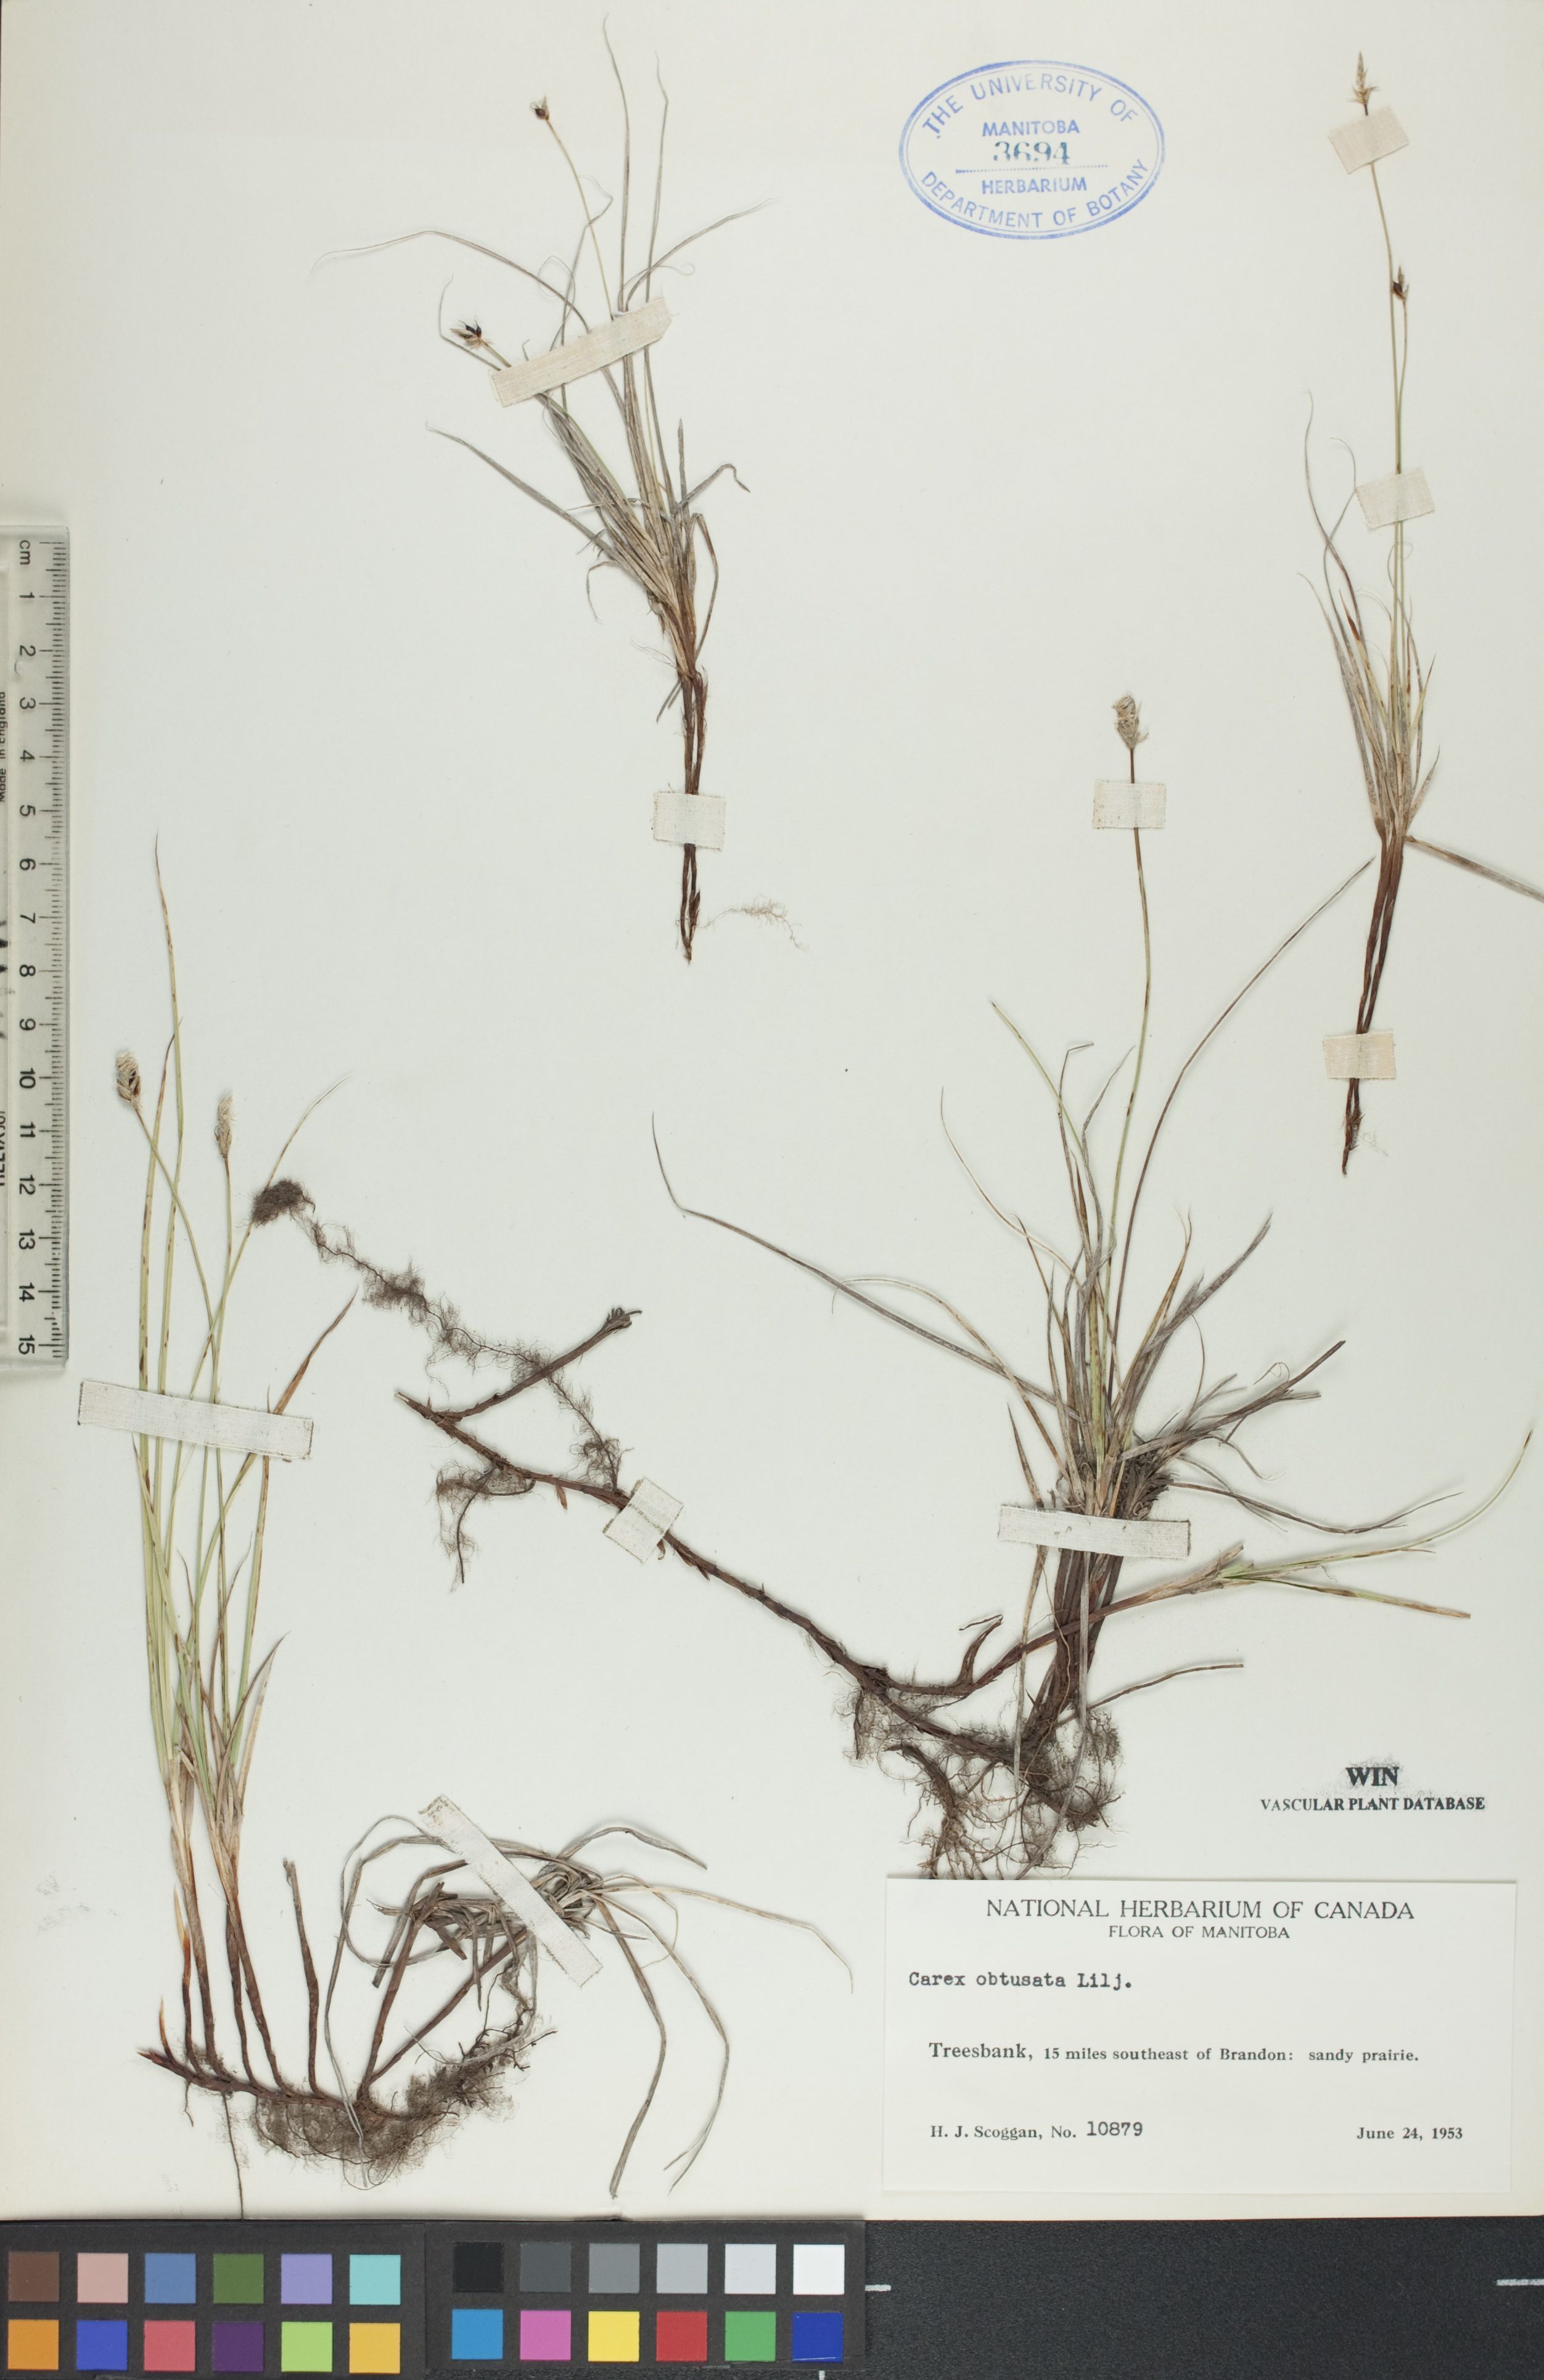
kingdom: Plantae
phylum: Tracheophyta
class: Liliopsida
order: Poales
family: Cyperaceae
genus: Carex
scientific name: Carex obtusata
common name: Blunt sedge
